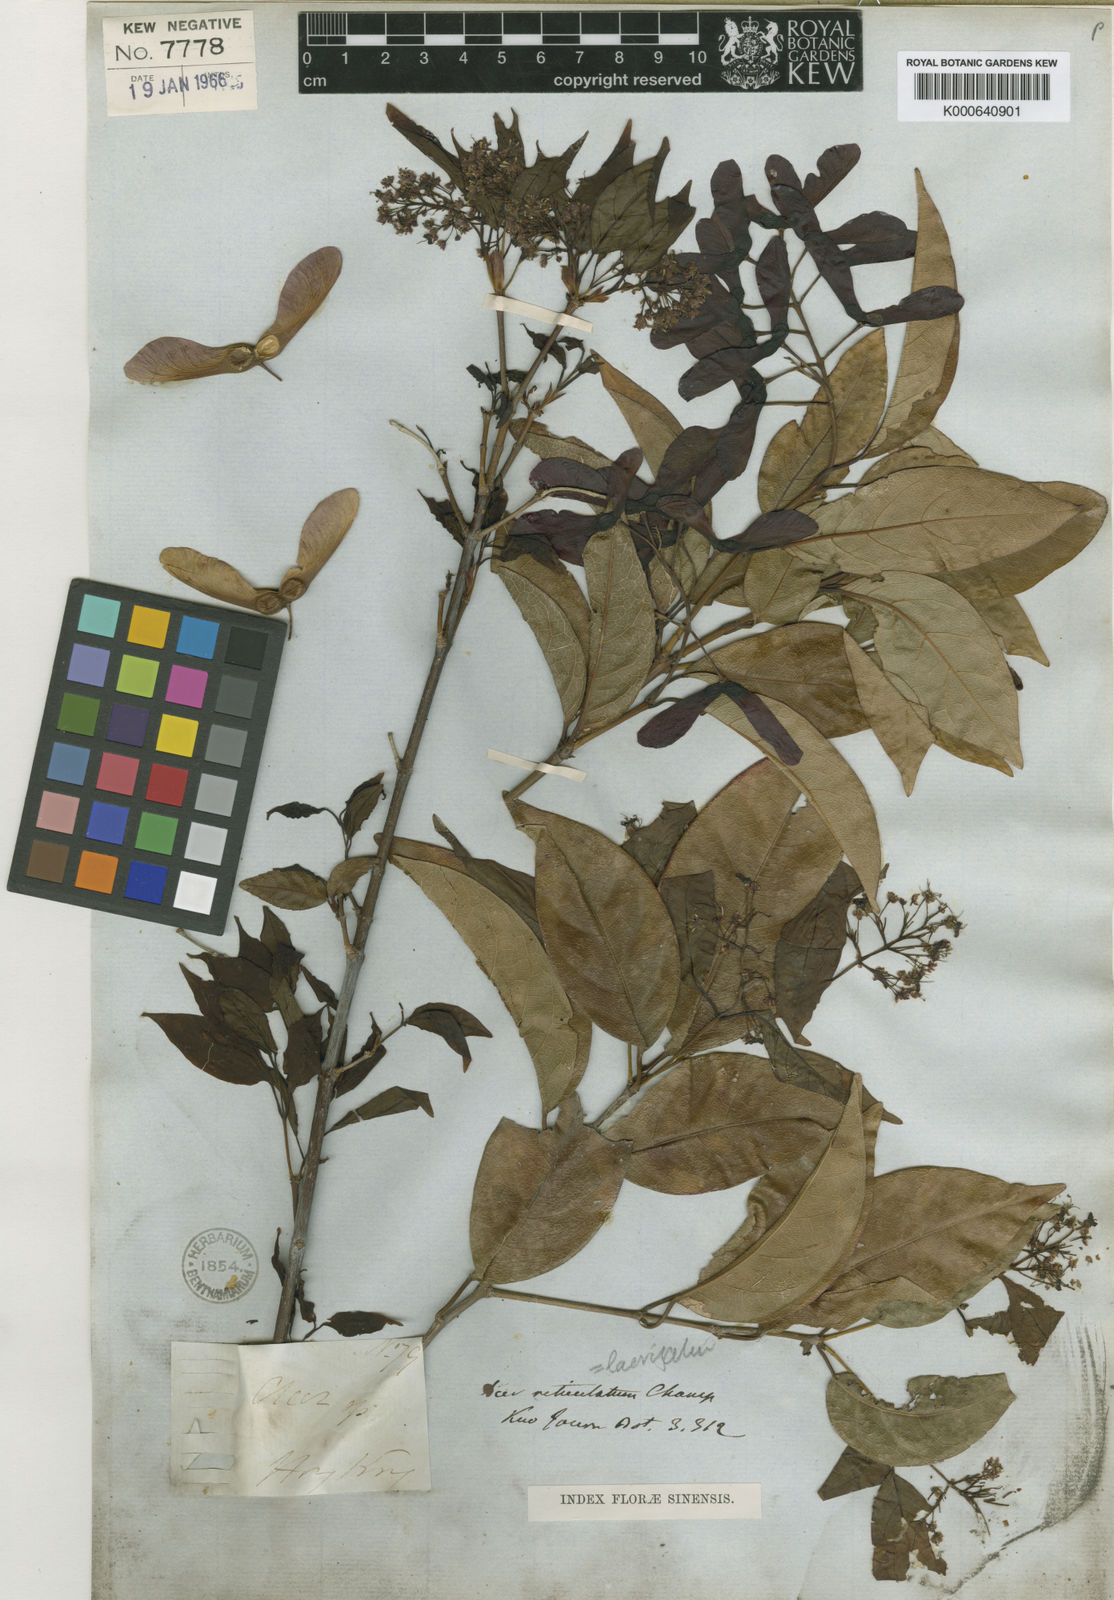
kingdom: Plantae
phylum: Tracheophyta
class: Magnoliopsida
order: Sapindales
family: Sapindaceae
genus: Acer
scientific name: Acer
